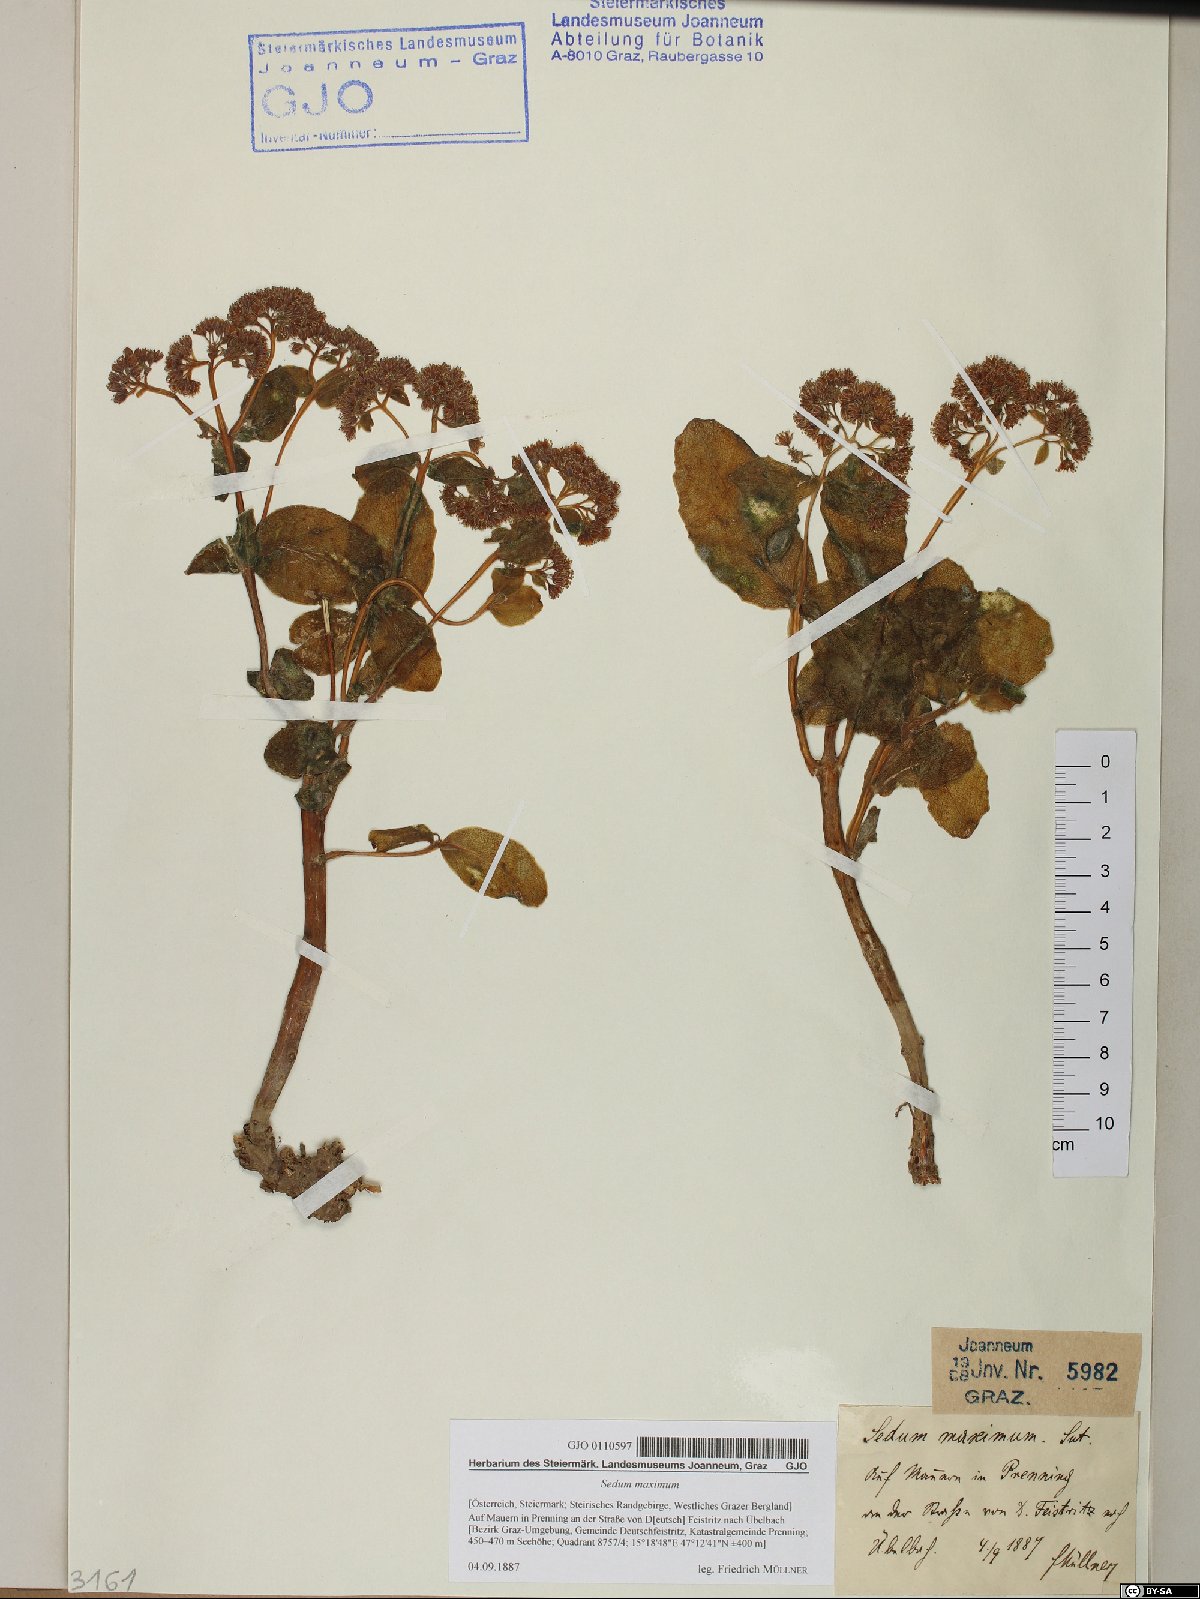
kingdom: Plantae
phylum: Tracheophyta
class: Magnoliopsida
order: Saxifragales
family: Crassulaceae
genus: Hylotelephium
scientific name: Hylotelephium maximum
